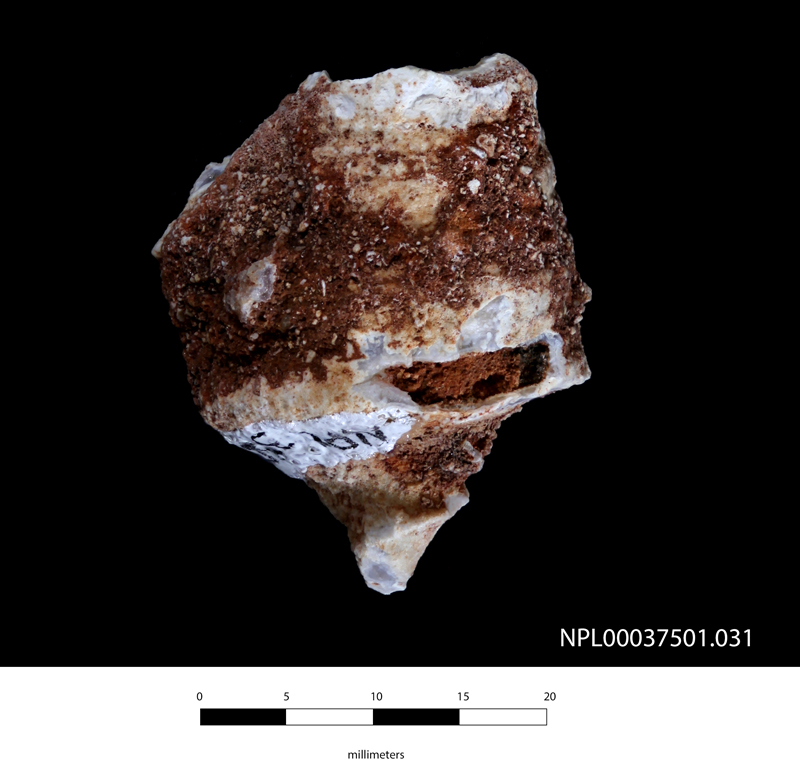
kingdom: Animalia
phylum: Mollusca
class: Bivalvia
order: Hippuritida
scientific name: Hippuritida
